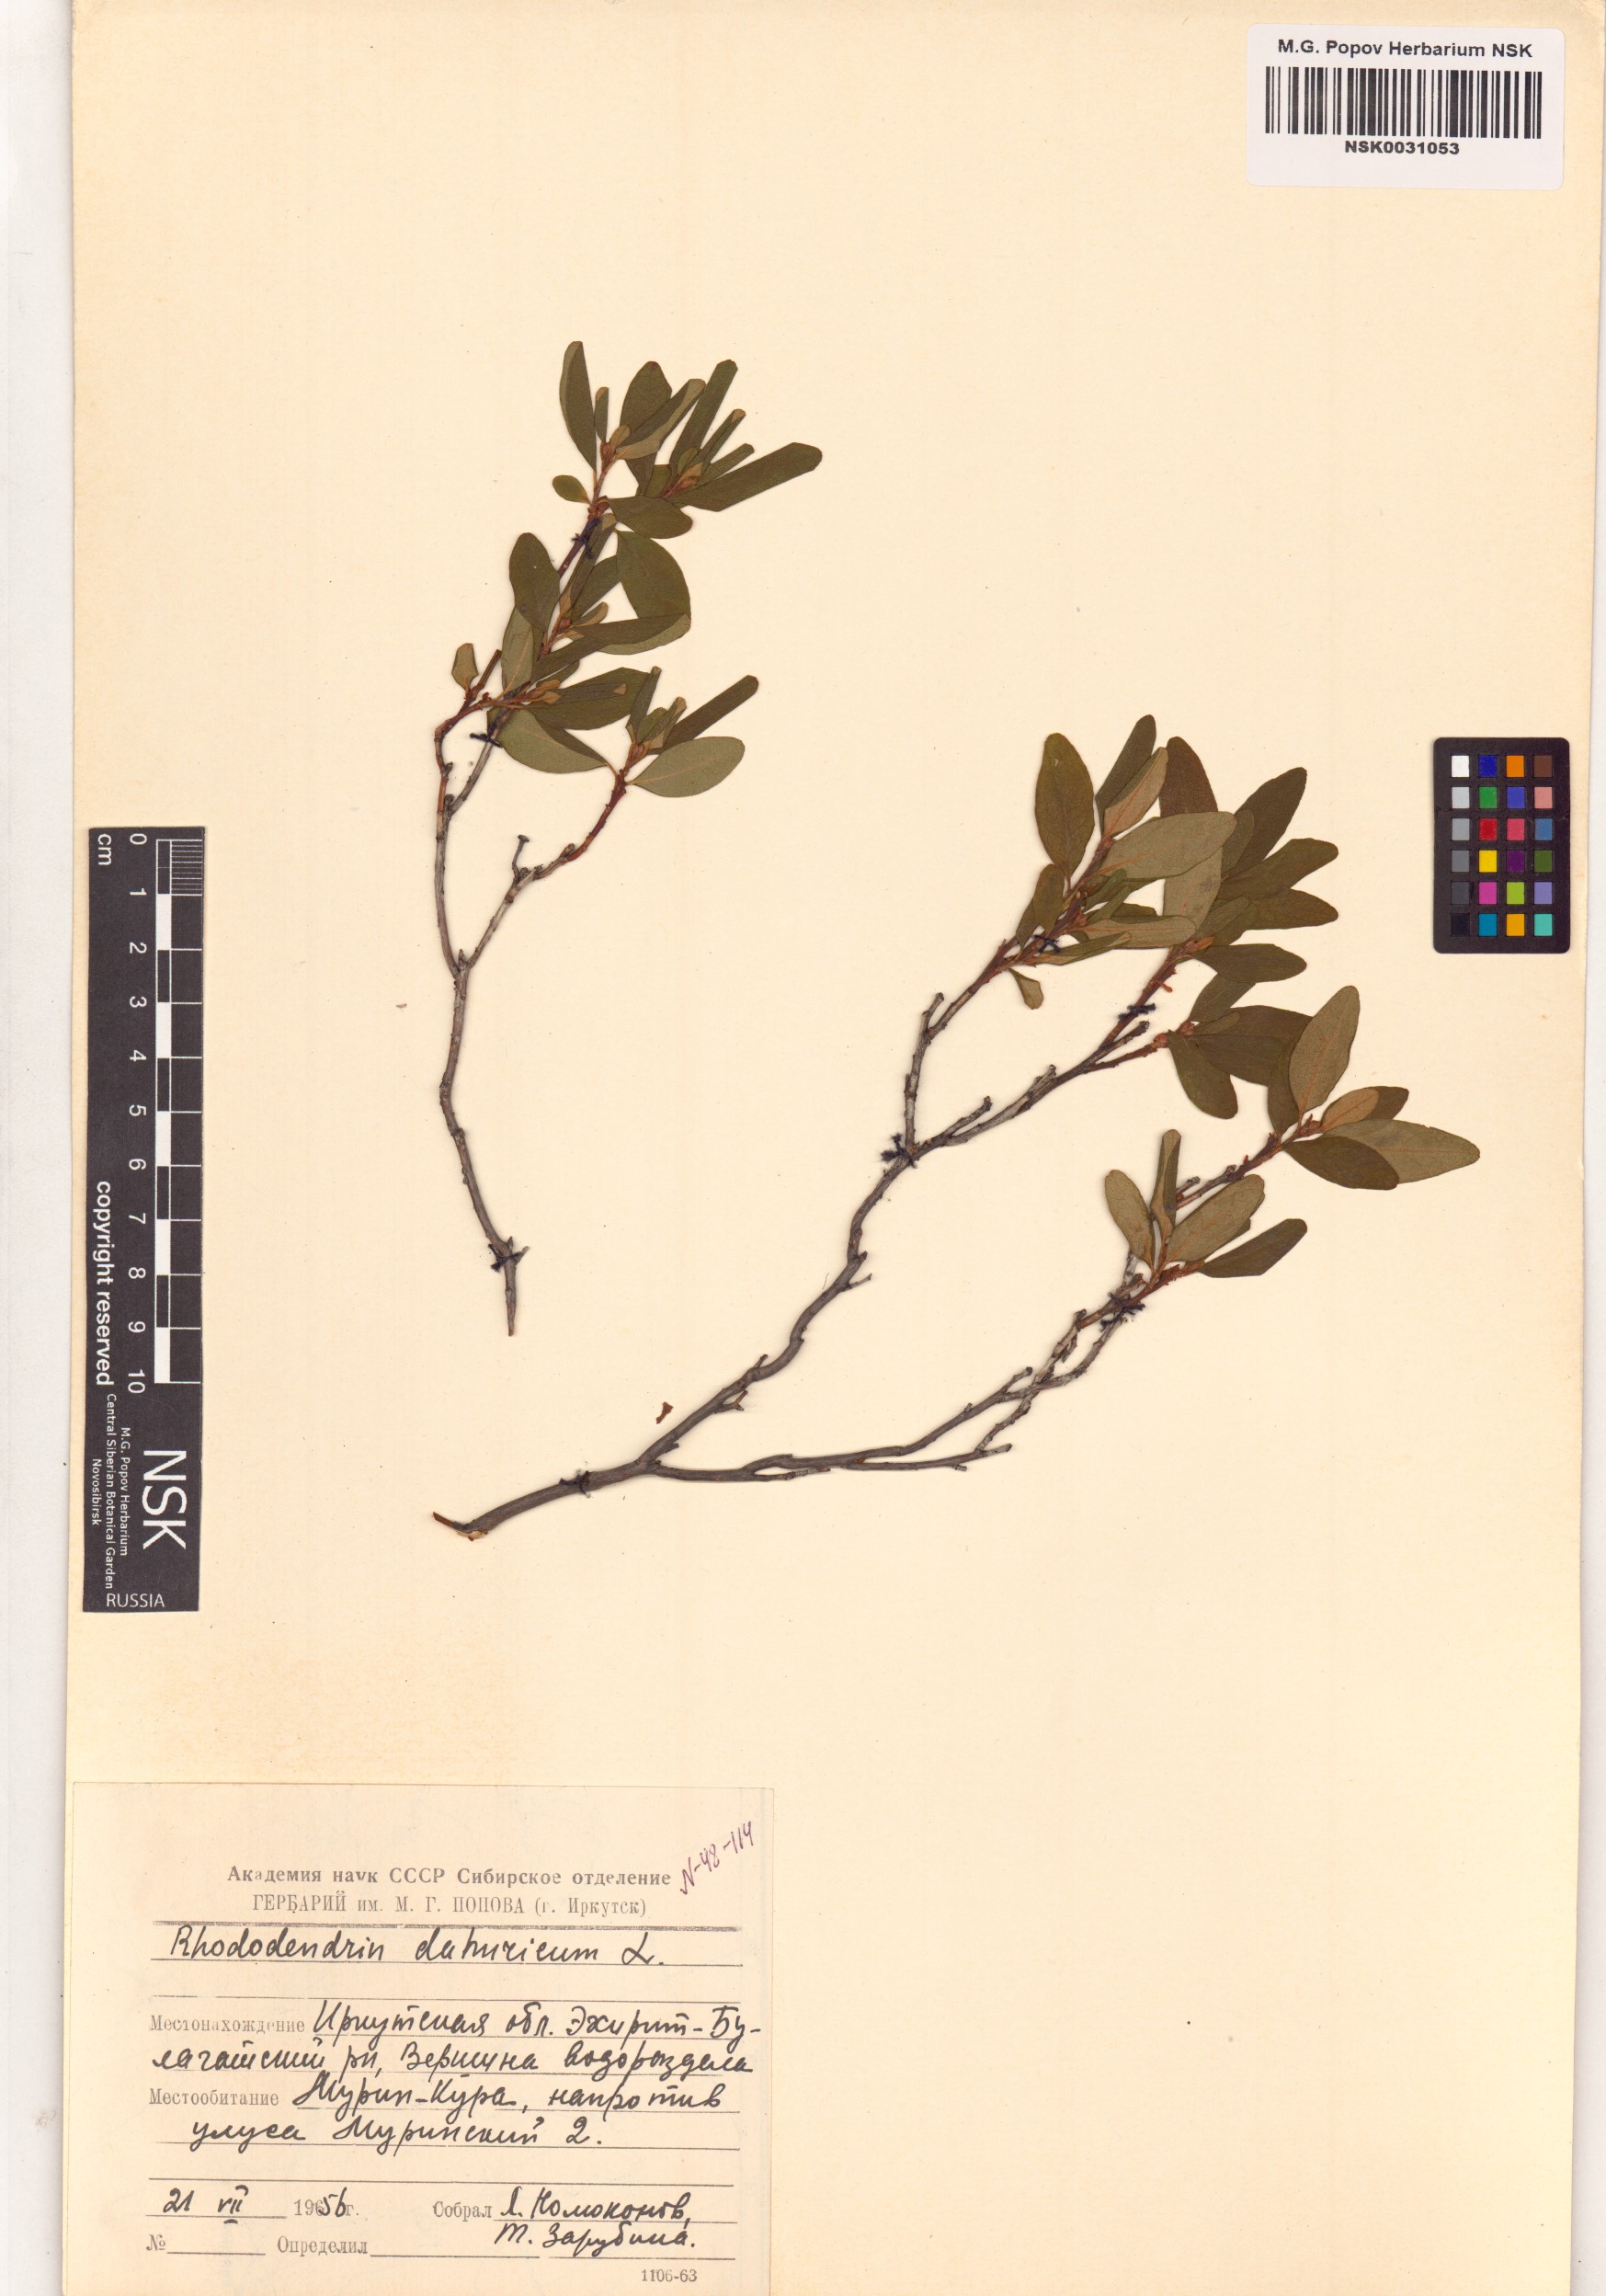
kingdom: Plantae
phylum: Tracheophyta
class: Magnoliopsida
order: Ericales
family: Ericaceae
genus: Rhododendron
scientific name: Rhododendron dauricum
